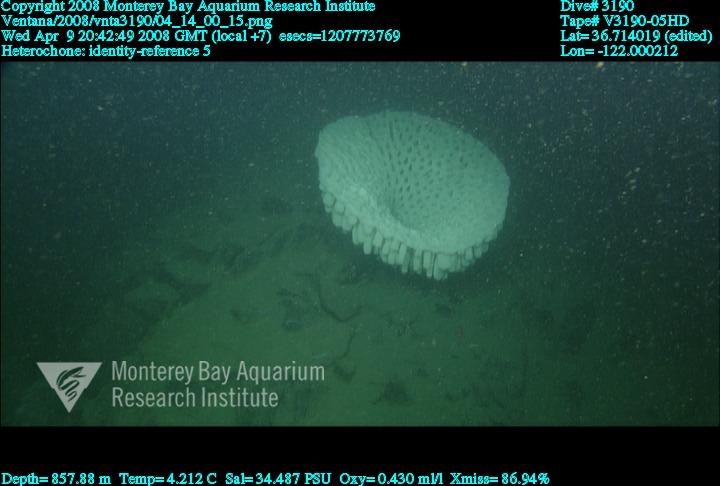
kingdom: Animalia
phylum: Porifera
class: Hexactinellida
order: Sceptrulophora
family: Aphrocallistidae
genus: Heterochone
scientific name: Heterochone
